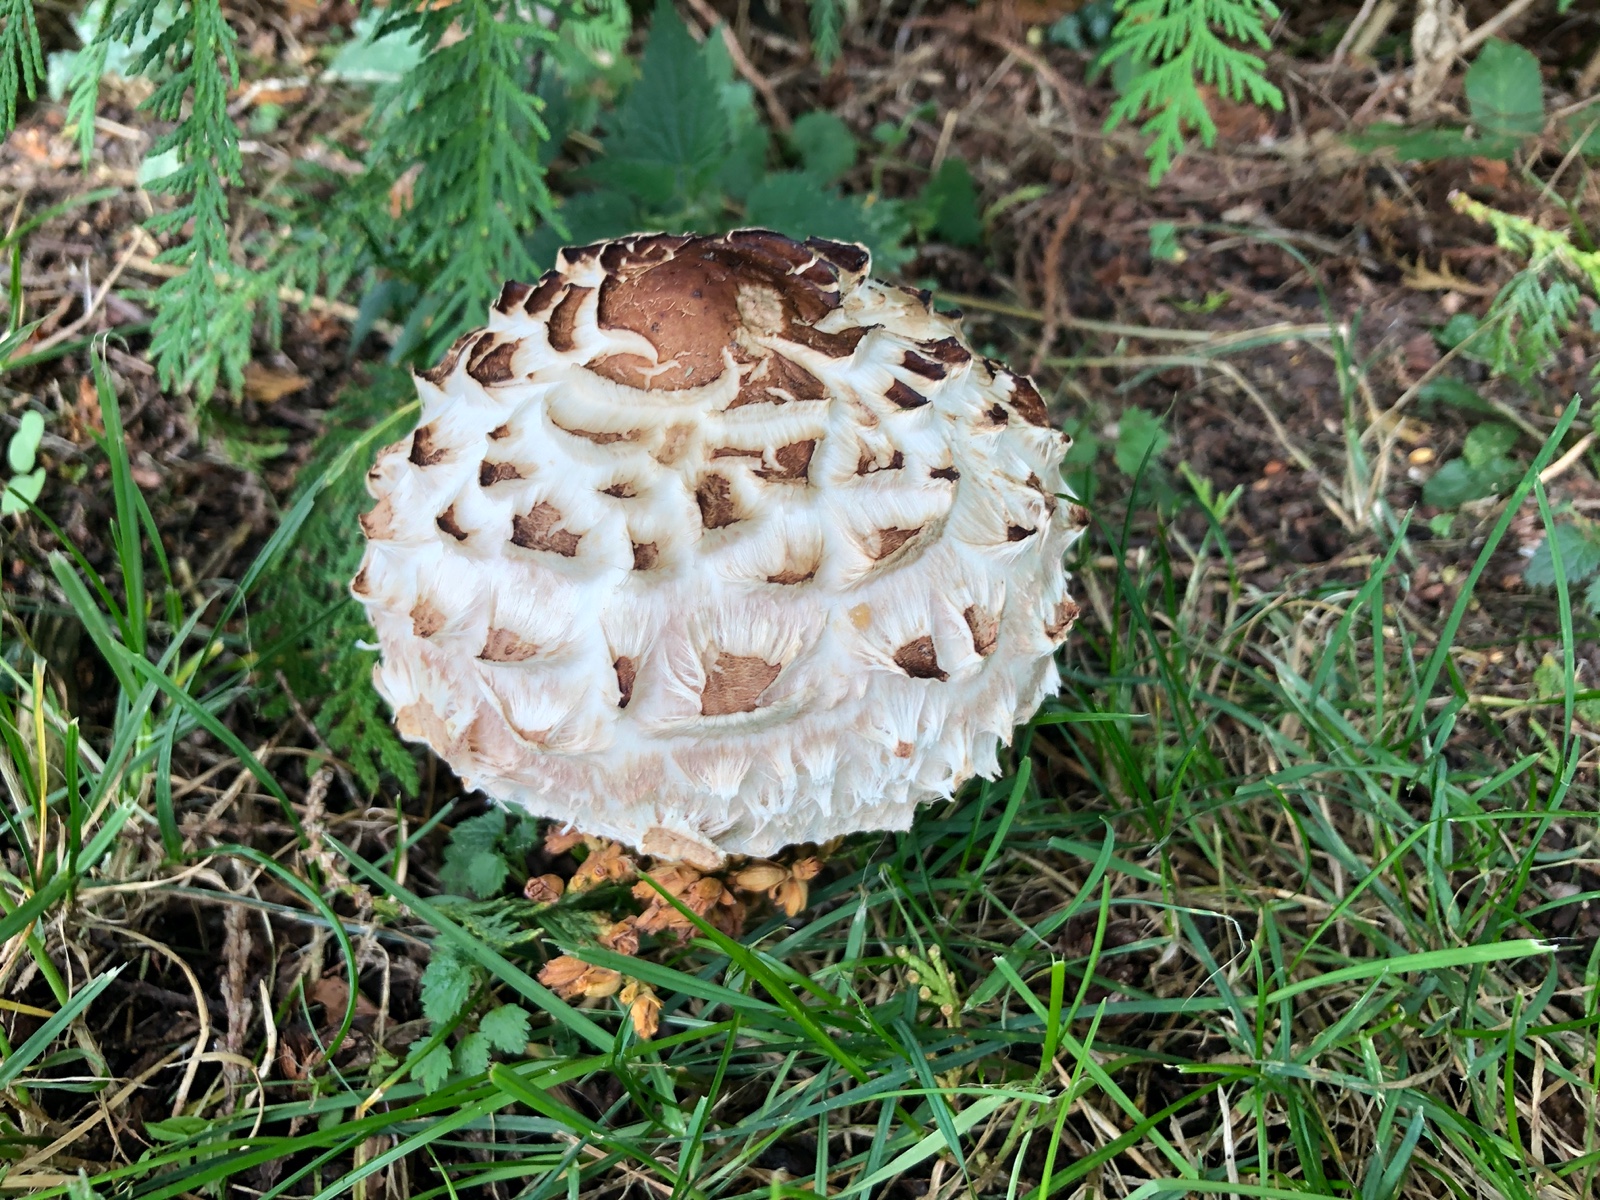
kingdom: Fungi
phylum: Basidiomycota
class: Agaricomycetes
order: Agaricales
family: Agaricaceae
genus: Chlorophyllum
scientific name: Chlorophyllum
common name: rabarberhat
